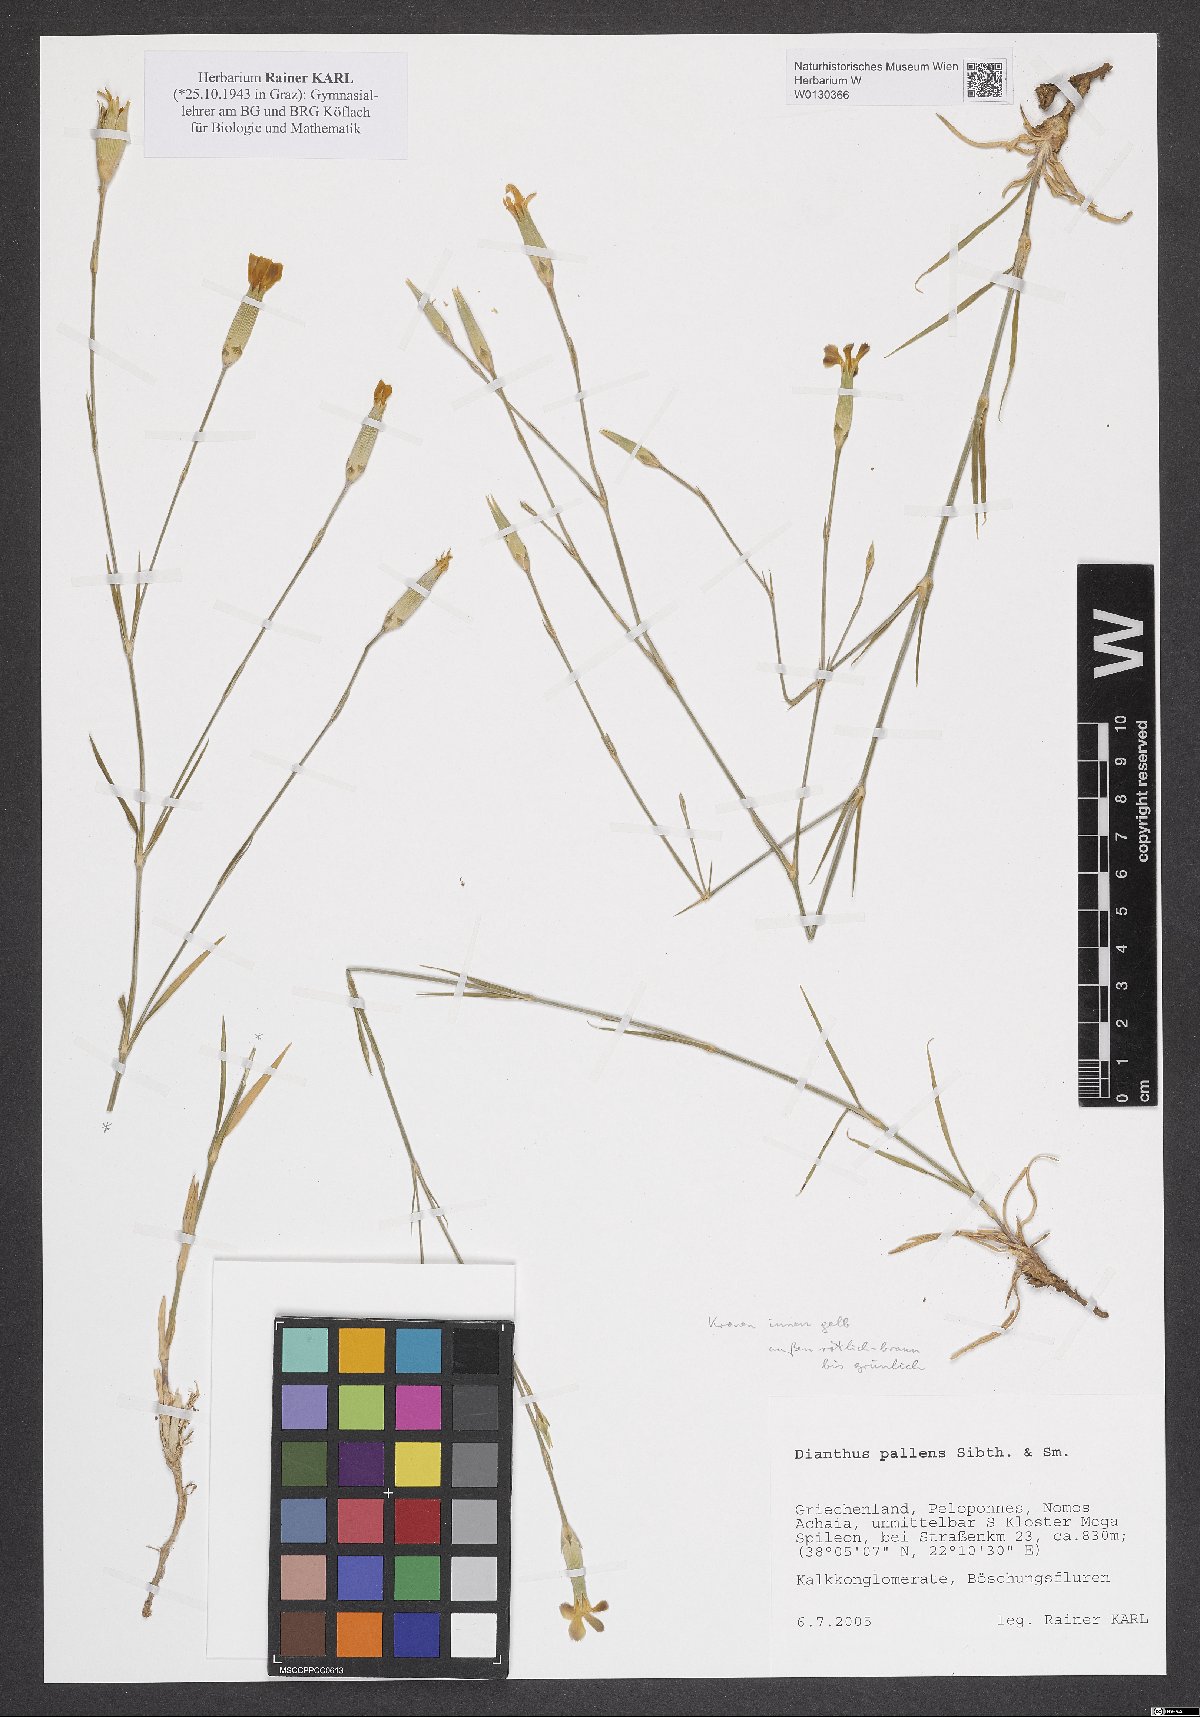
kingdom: Plantae
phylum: Tracheophyta
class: Magnoliopsida
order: Caryophyllales
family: Caryophyllaceae
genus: Dianthus
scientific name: Dianthus monadelphus
